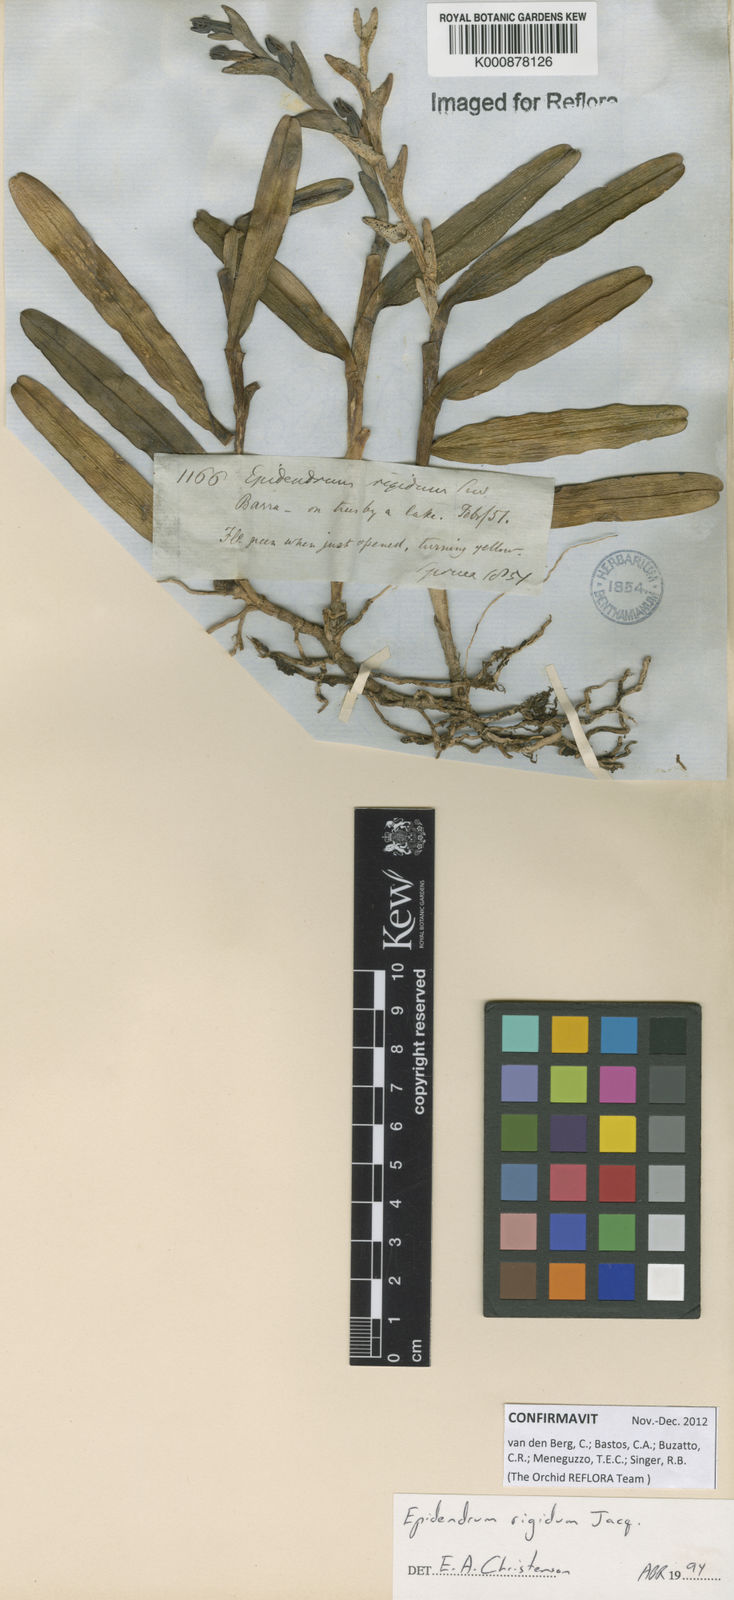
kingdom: Plantae
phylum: Tracheophyta
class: Liliopsida
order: Asparagales
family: Orchidaceae
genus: Epidendrum
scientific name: Epidendrum rigidum
